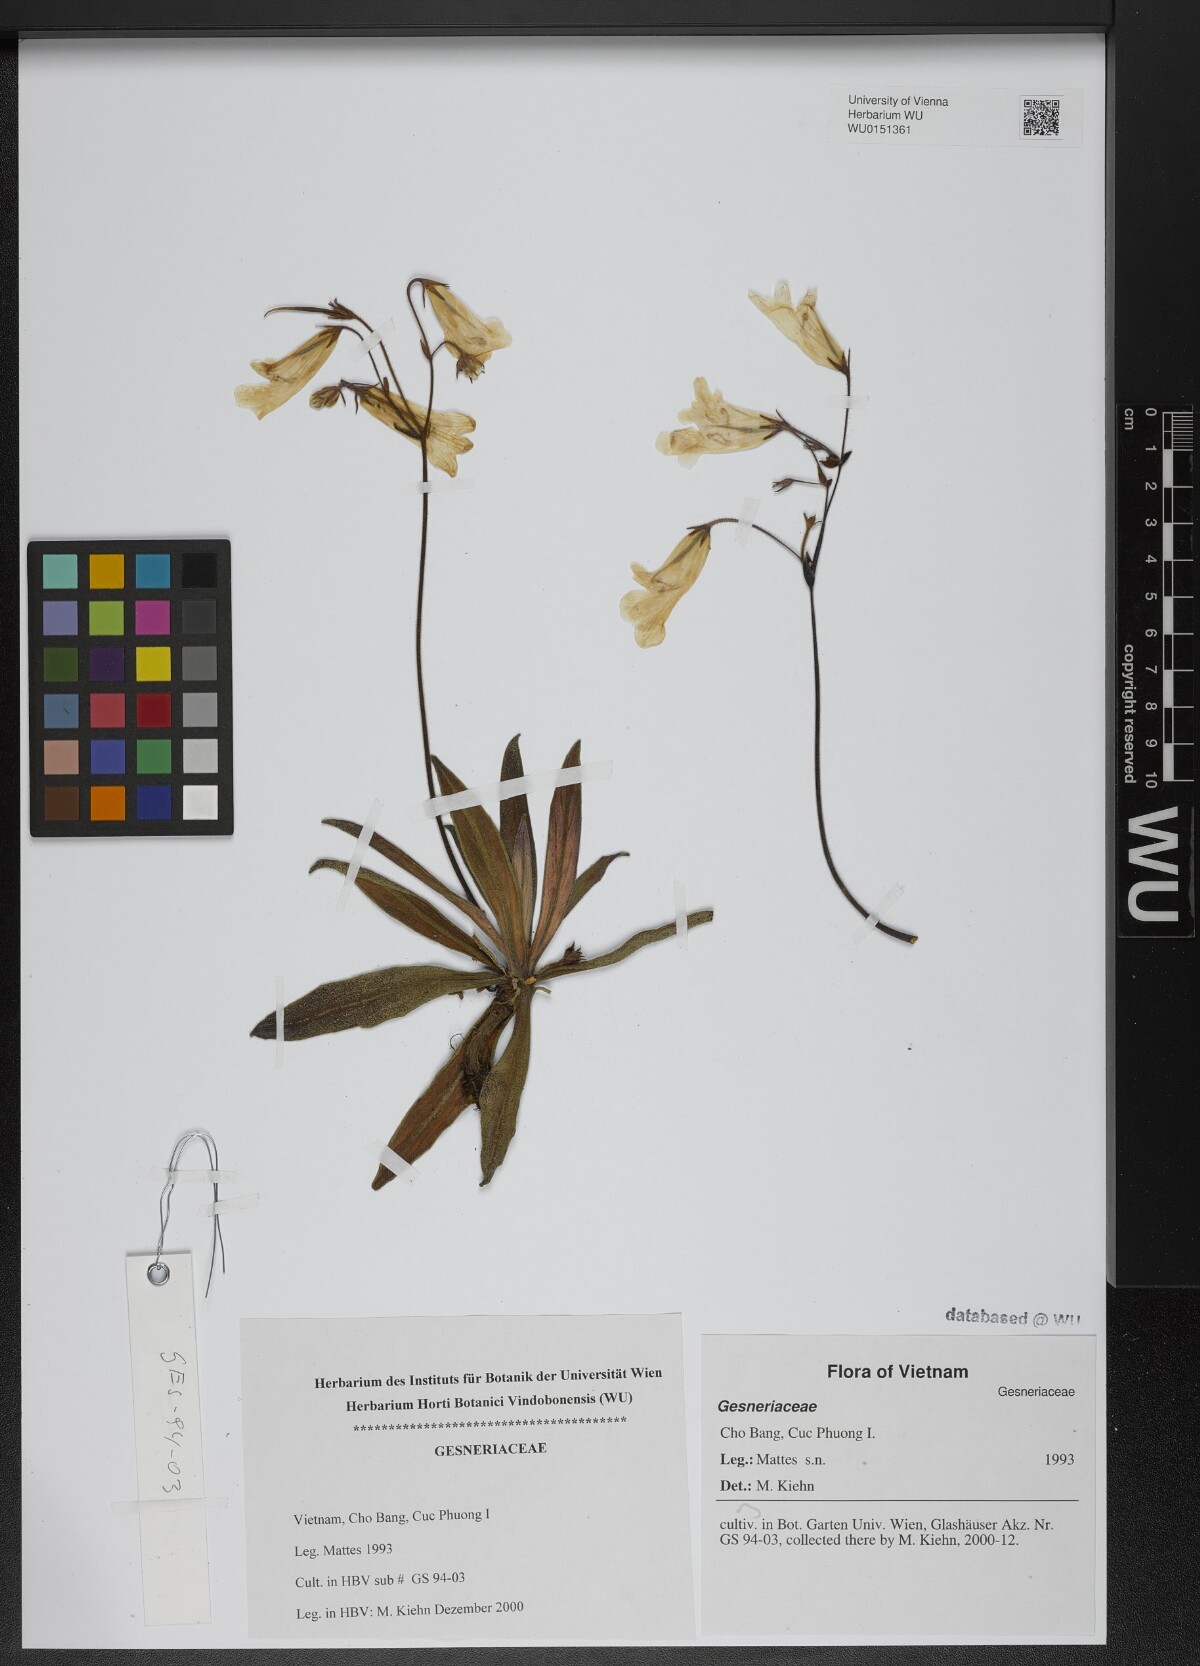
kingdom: Plantae
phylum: Tracheophyta
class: Magnoliopsida
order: Lamiales
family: Gesneriaceae
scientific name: Gesneriaceae
